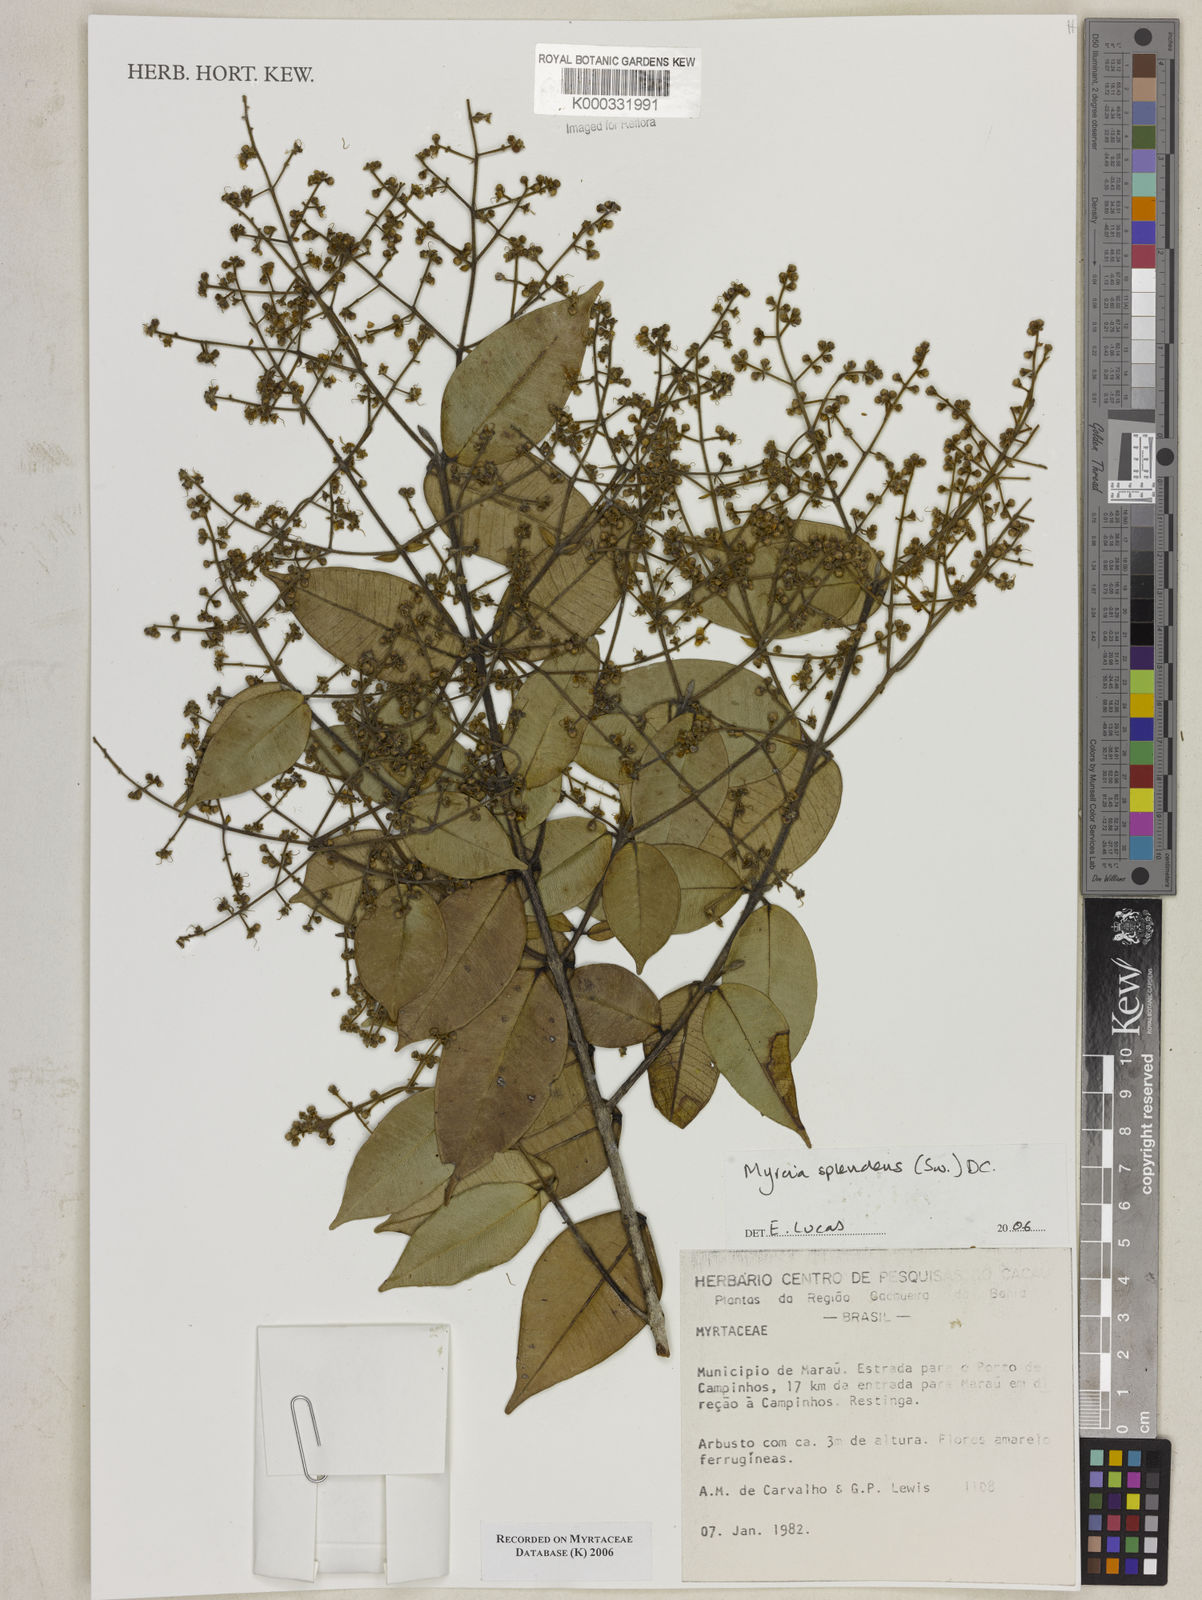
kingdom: Plantae
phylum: Tracheophyta
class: Magnoliopsida
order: Myrtales
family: Myrtaceae
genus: Myrcia
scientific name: Myrcia splendens
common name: Surinam cherry
